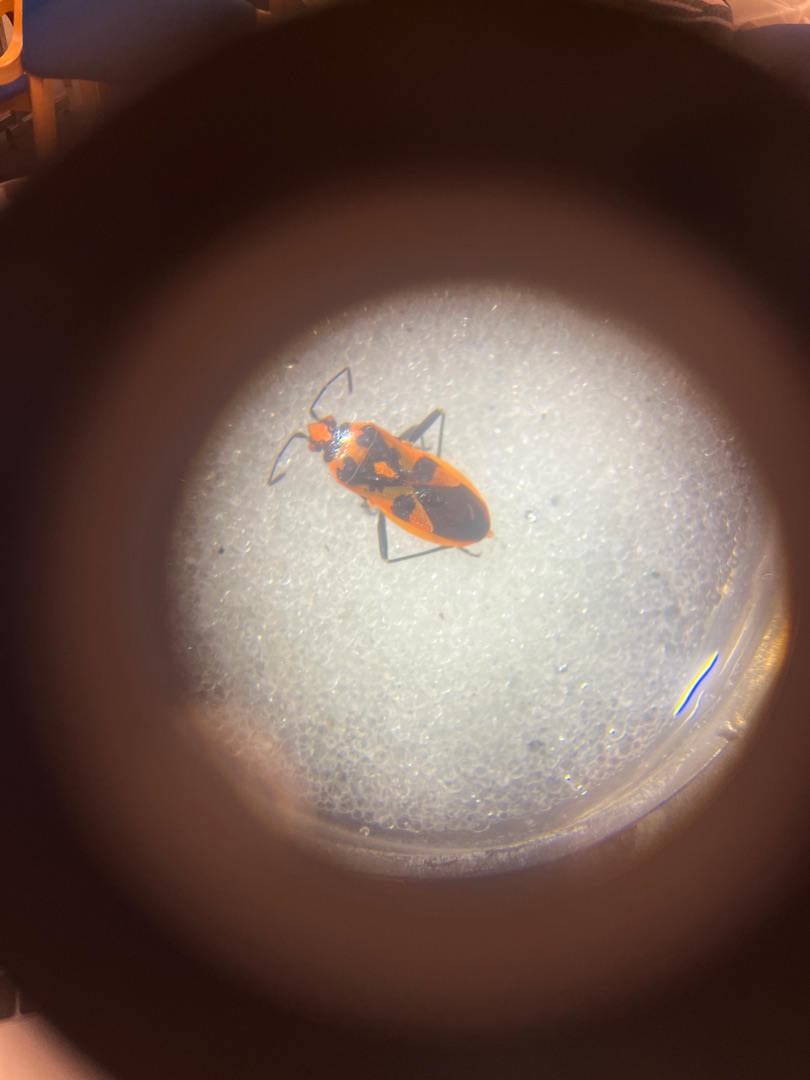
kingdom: Animalia
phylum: Arthropoda
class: Insecta
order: Hemiptera
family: Rhopalidae
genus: Corizus
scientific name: Corizus hyoscyami
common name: Rød kanttæge
